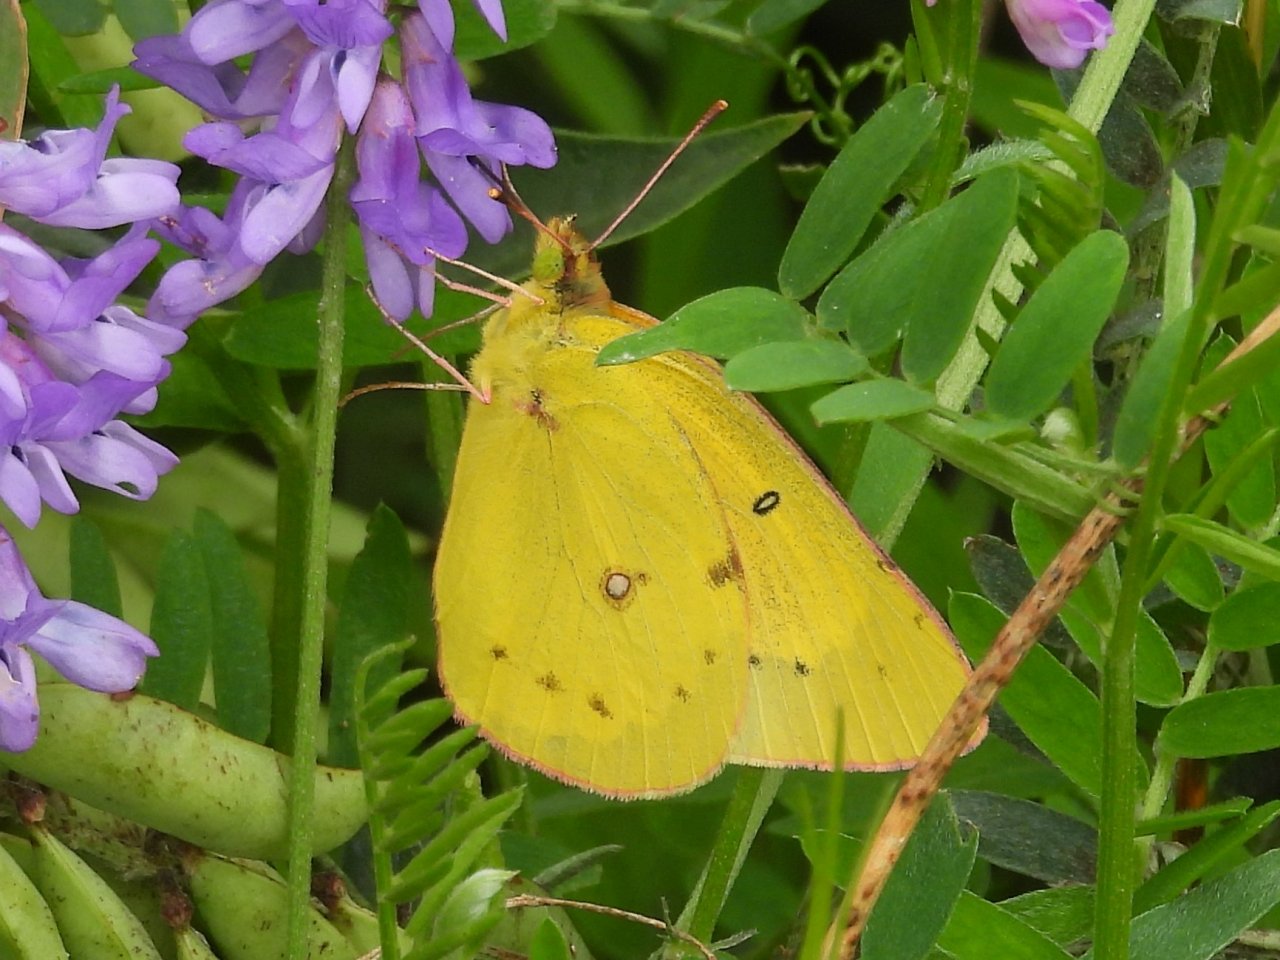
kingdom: Animalia
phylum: Arthropoda
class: Insecta
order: Lepidoptera
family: Pieridae
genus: Colias
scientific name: Colias eurytheme
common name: Orange Sulphur
